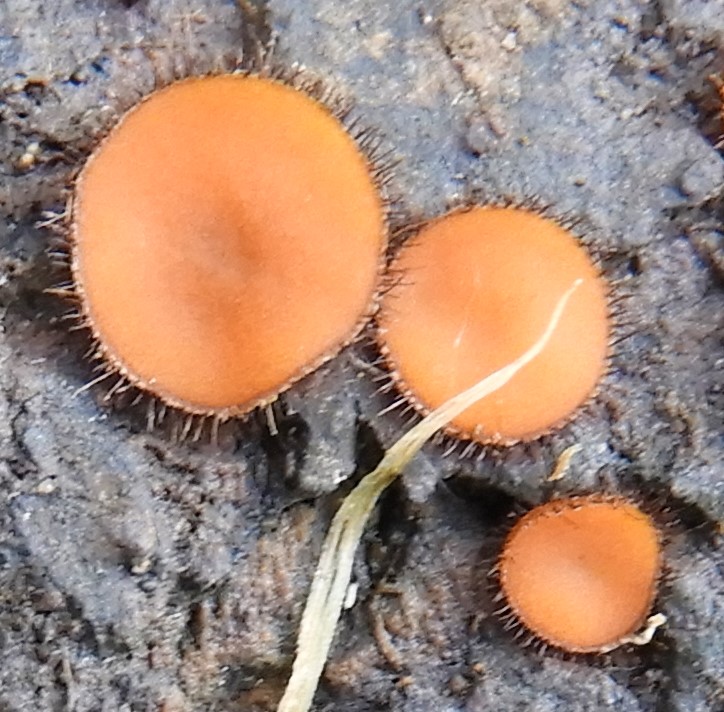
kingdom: Fungi
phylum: Ascomycota
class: Pezizomycetes
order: Pezizales
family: Pyronemataceae
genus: Scutellinia
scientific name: Scutellinia scutellata
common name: frynset skjoldbæger
